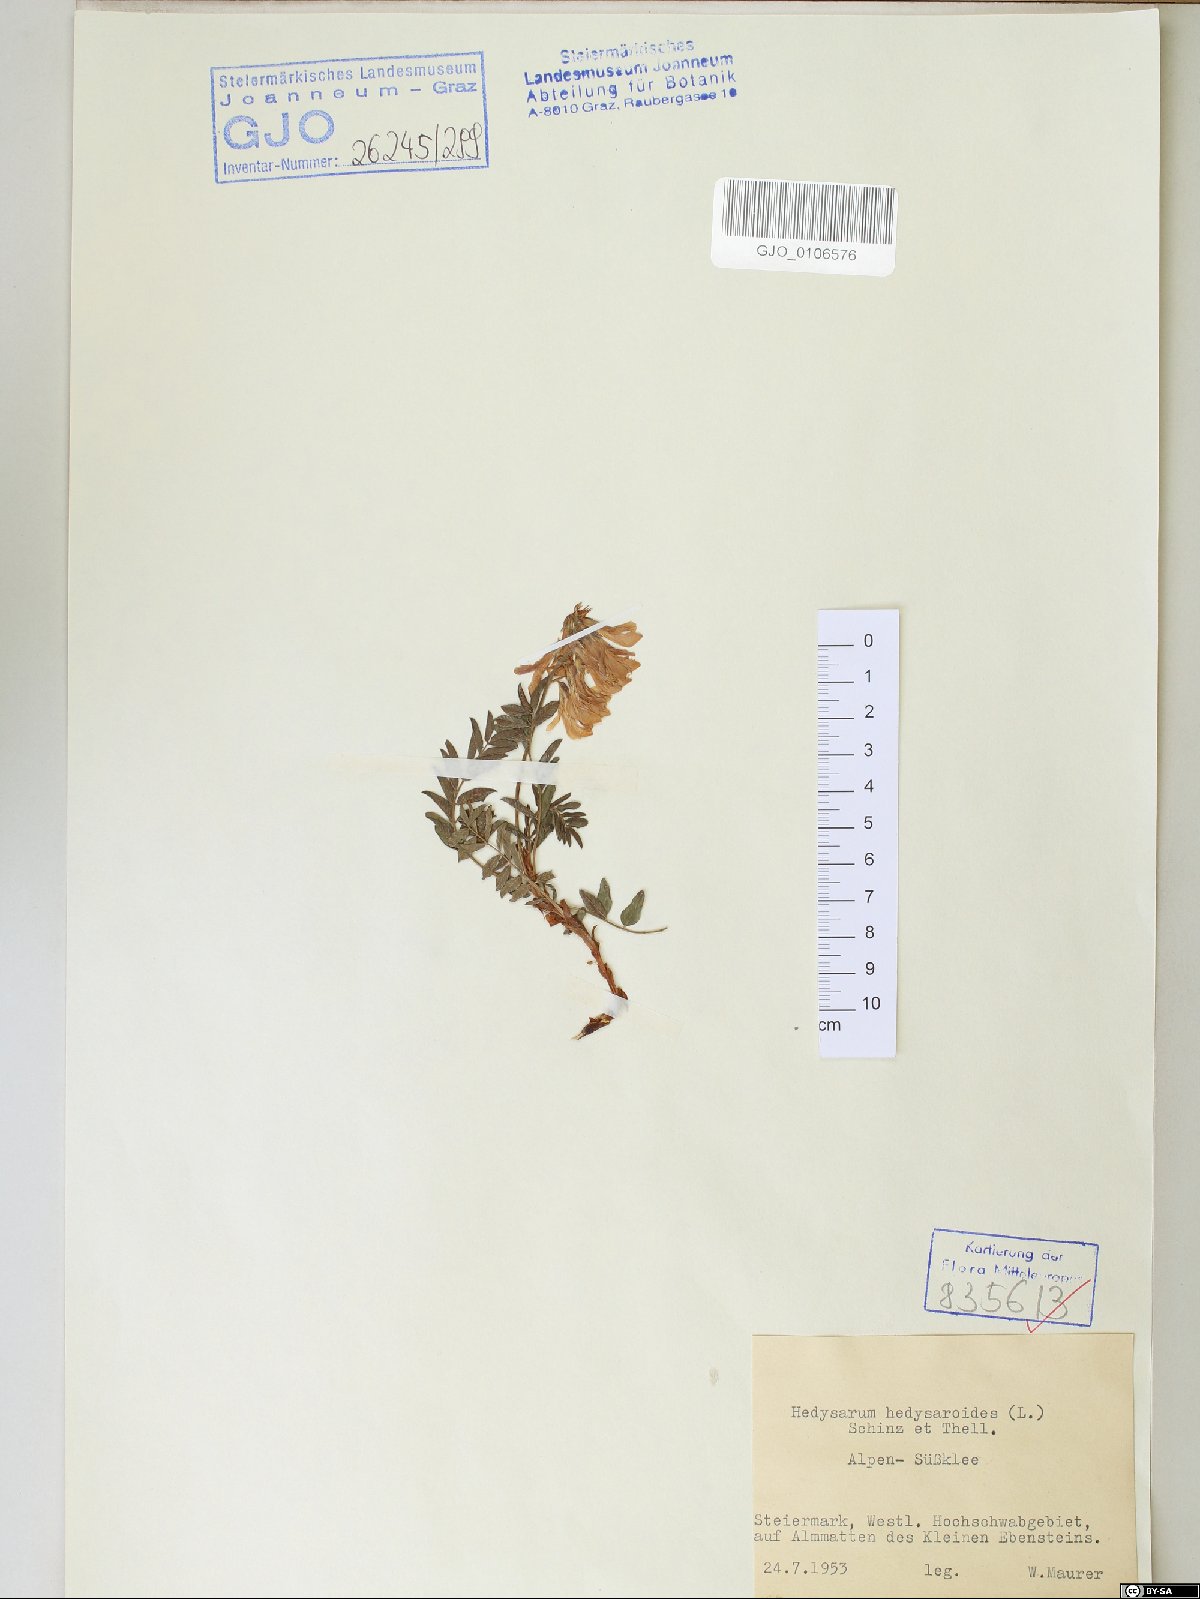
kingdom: Plantae
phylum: Tracheophyta
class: Magnoliopsida
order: Fabales
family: Fabaceae
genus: Hedysarum
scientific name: Hedysarum hedysaroides
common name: Alpine french-honeysuckle
